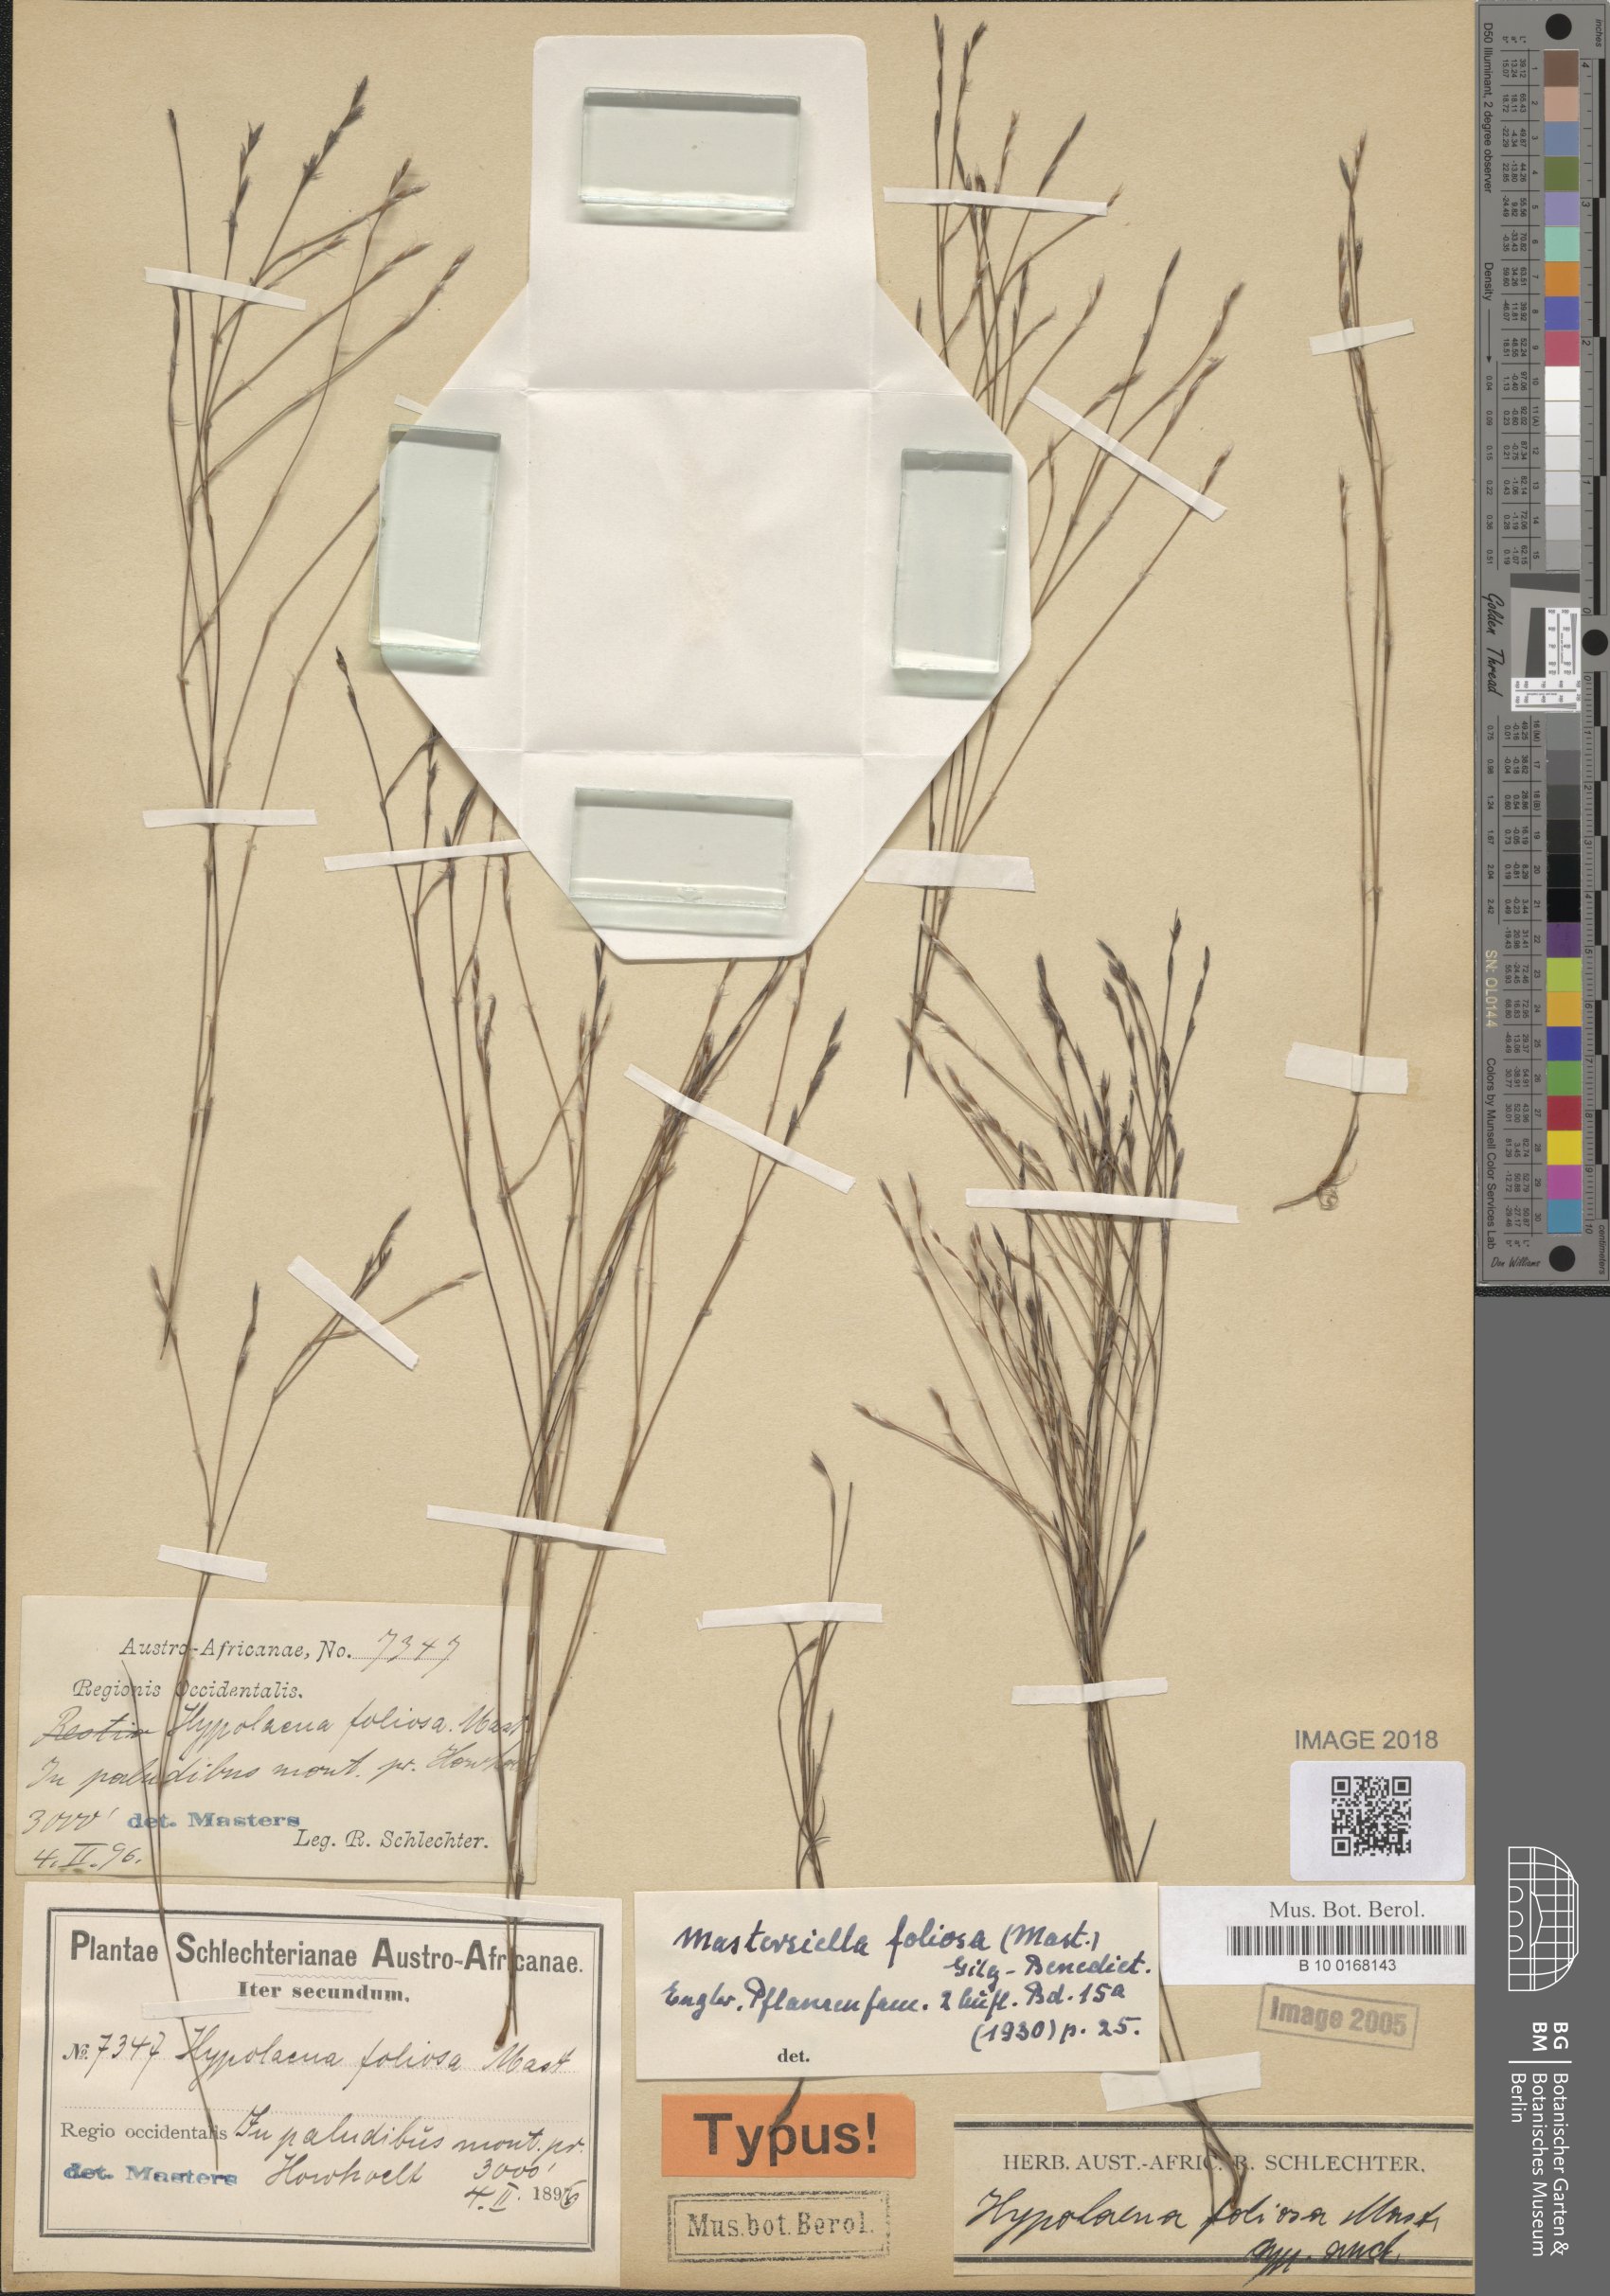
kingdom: Plantae
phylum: Tracheophyta
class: Liliopsida
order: Poales
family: Restionaceae
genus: Anthochortus
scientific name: Anthochortus graminifolius
